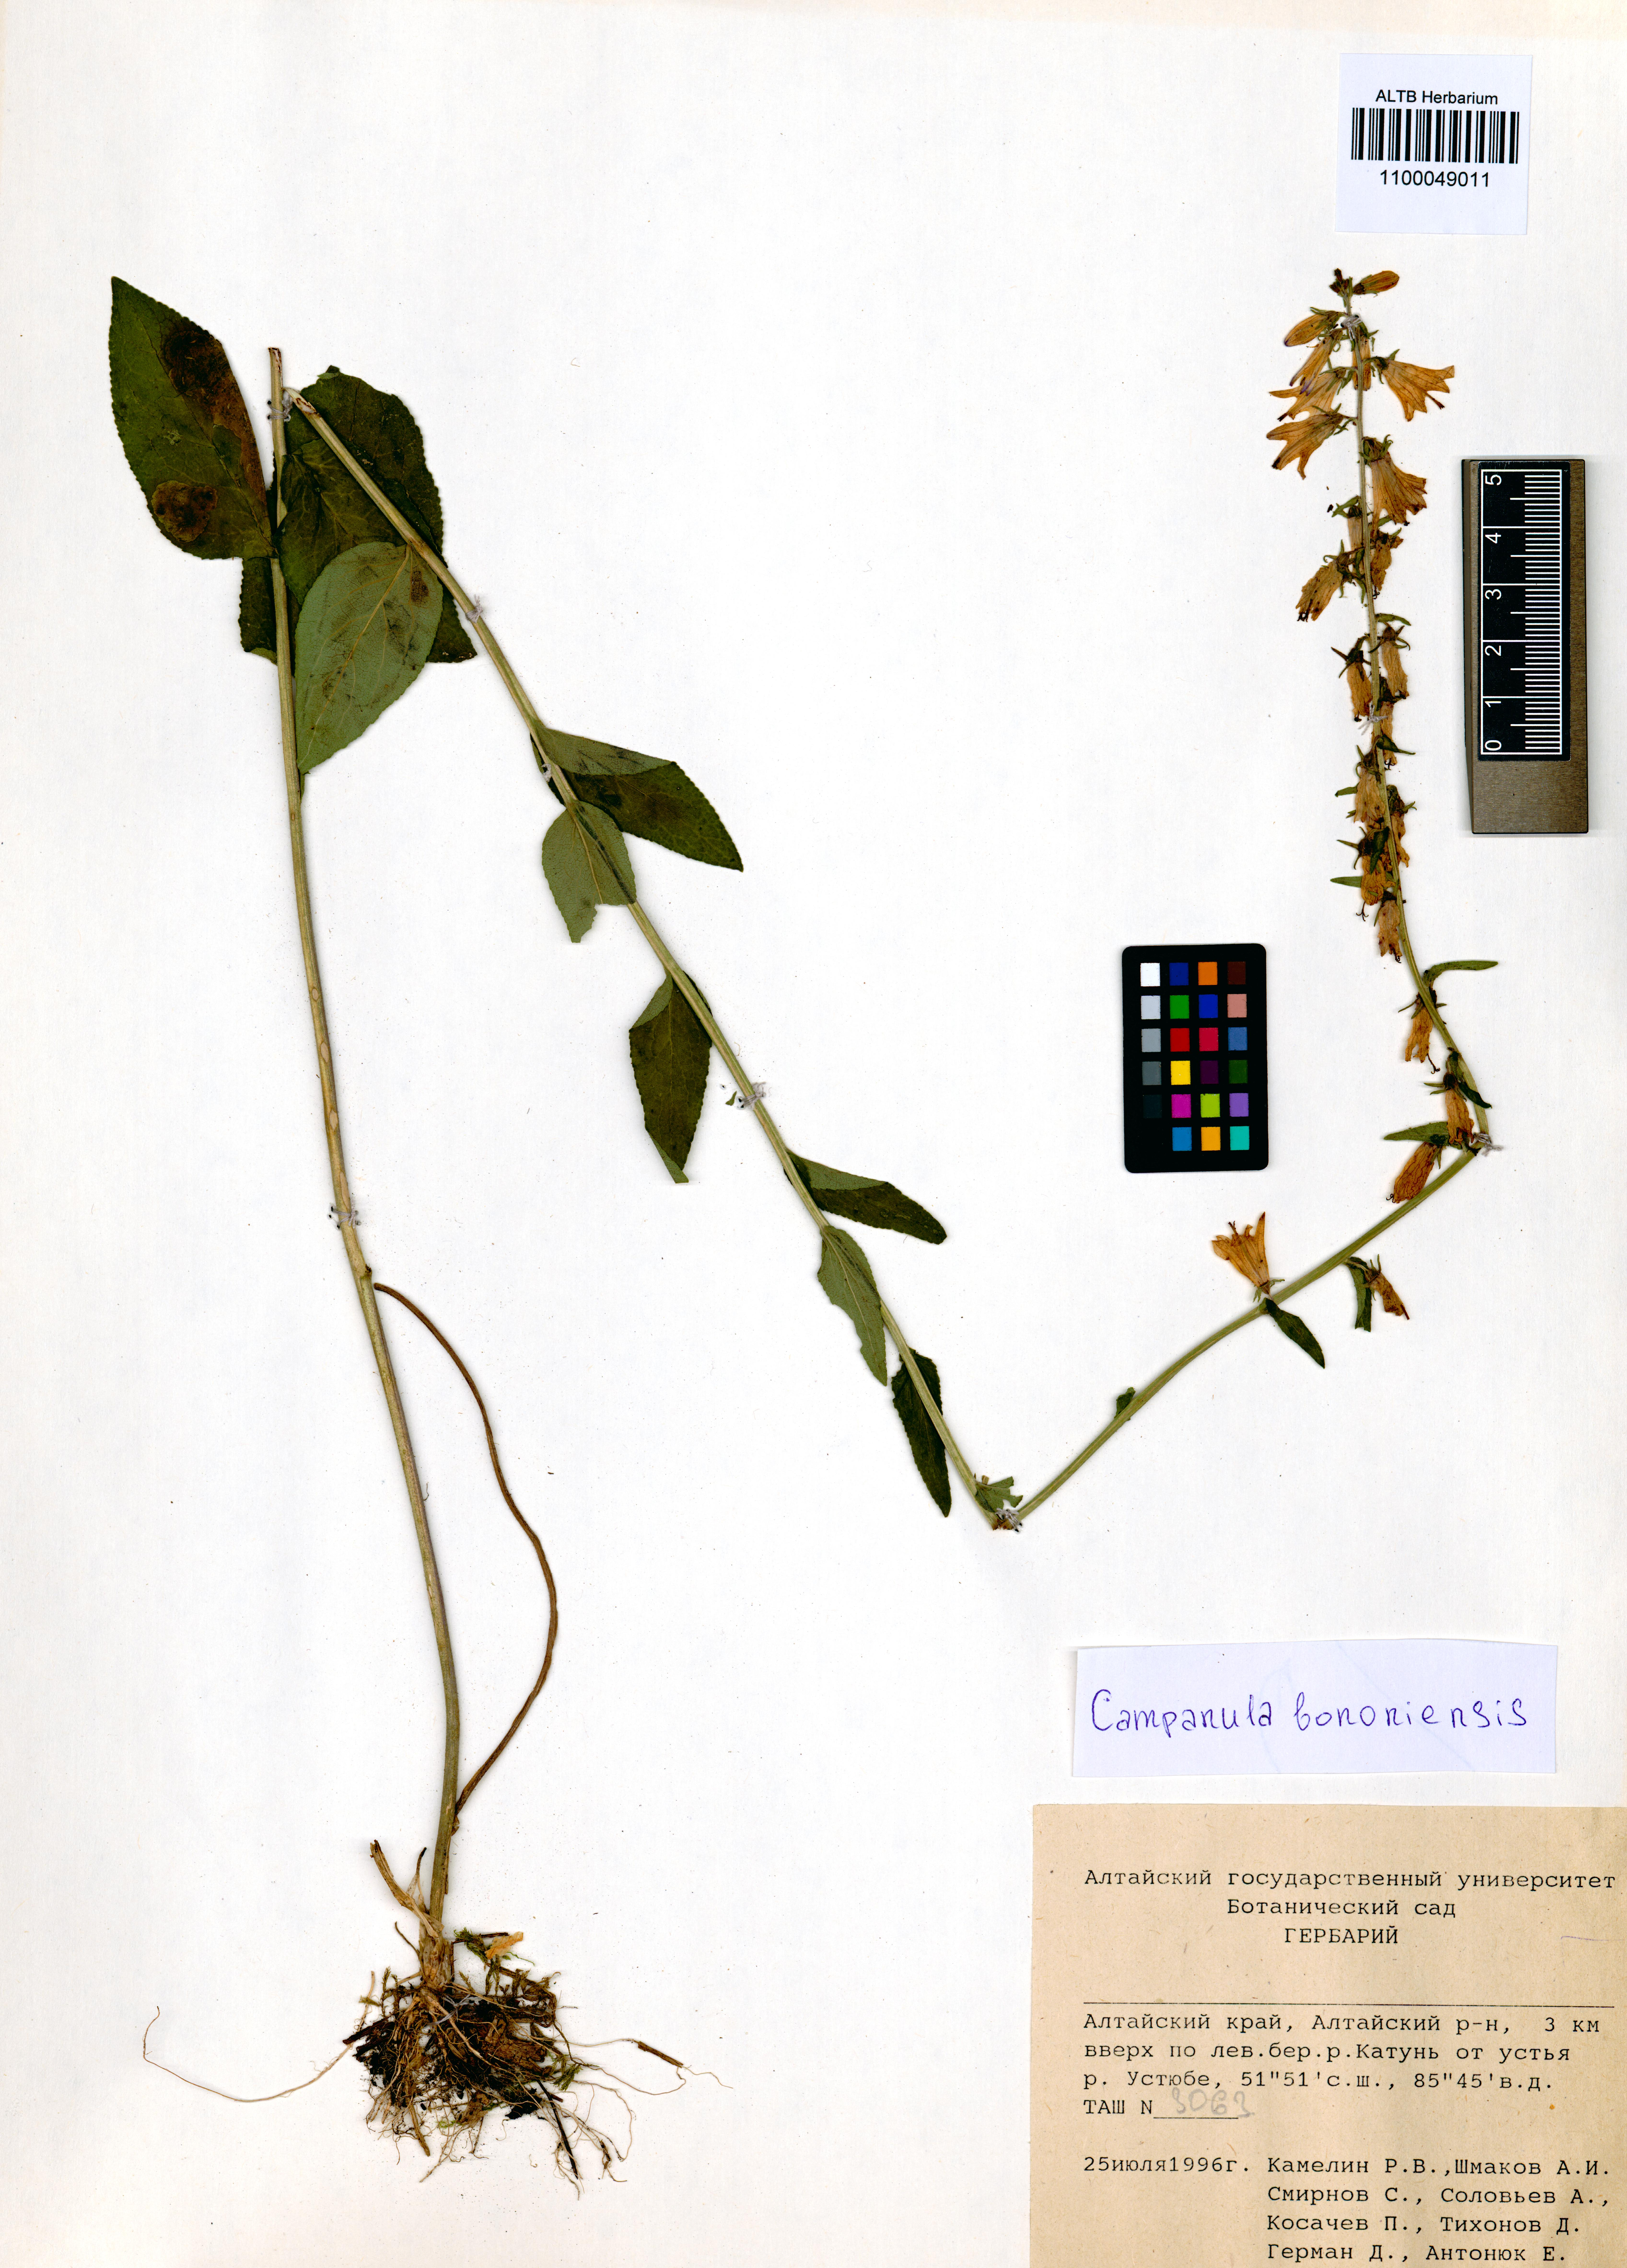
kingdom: Plantae
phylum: Tracheophyta
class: Magnoliopsida
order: Asterales
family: Campanulaceae
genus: Campanula
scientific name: Campanula bononiensis
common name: Pale bellflower
